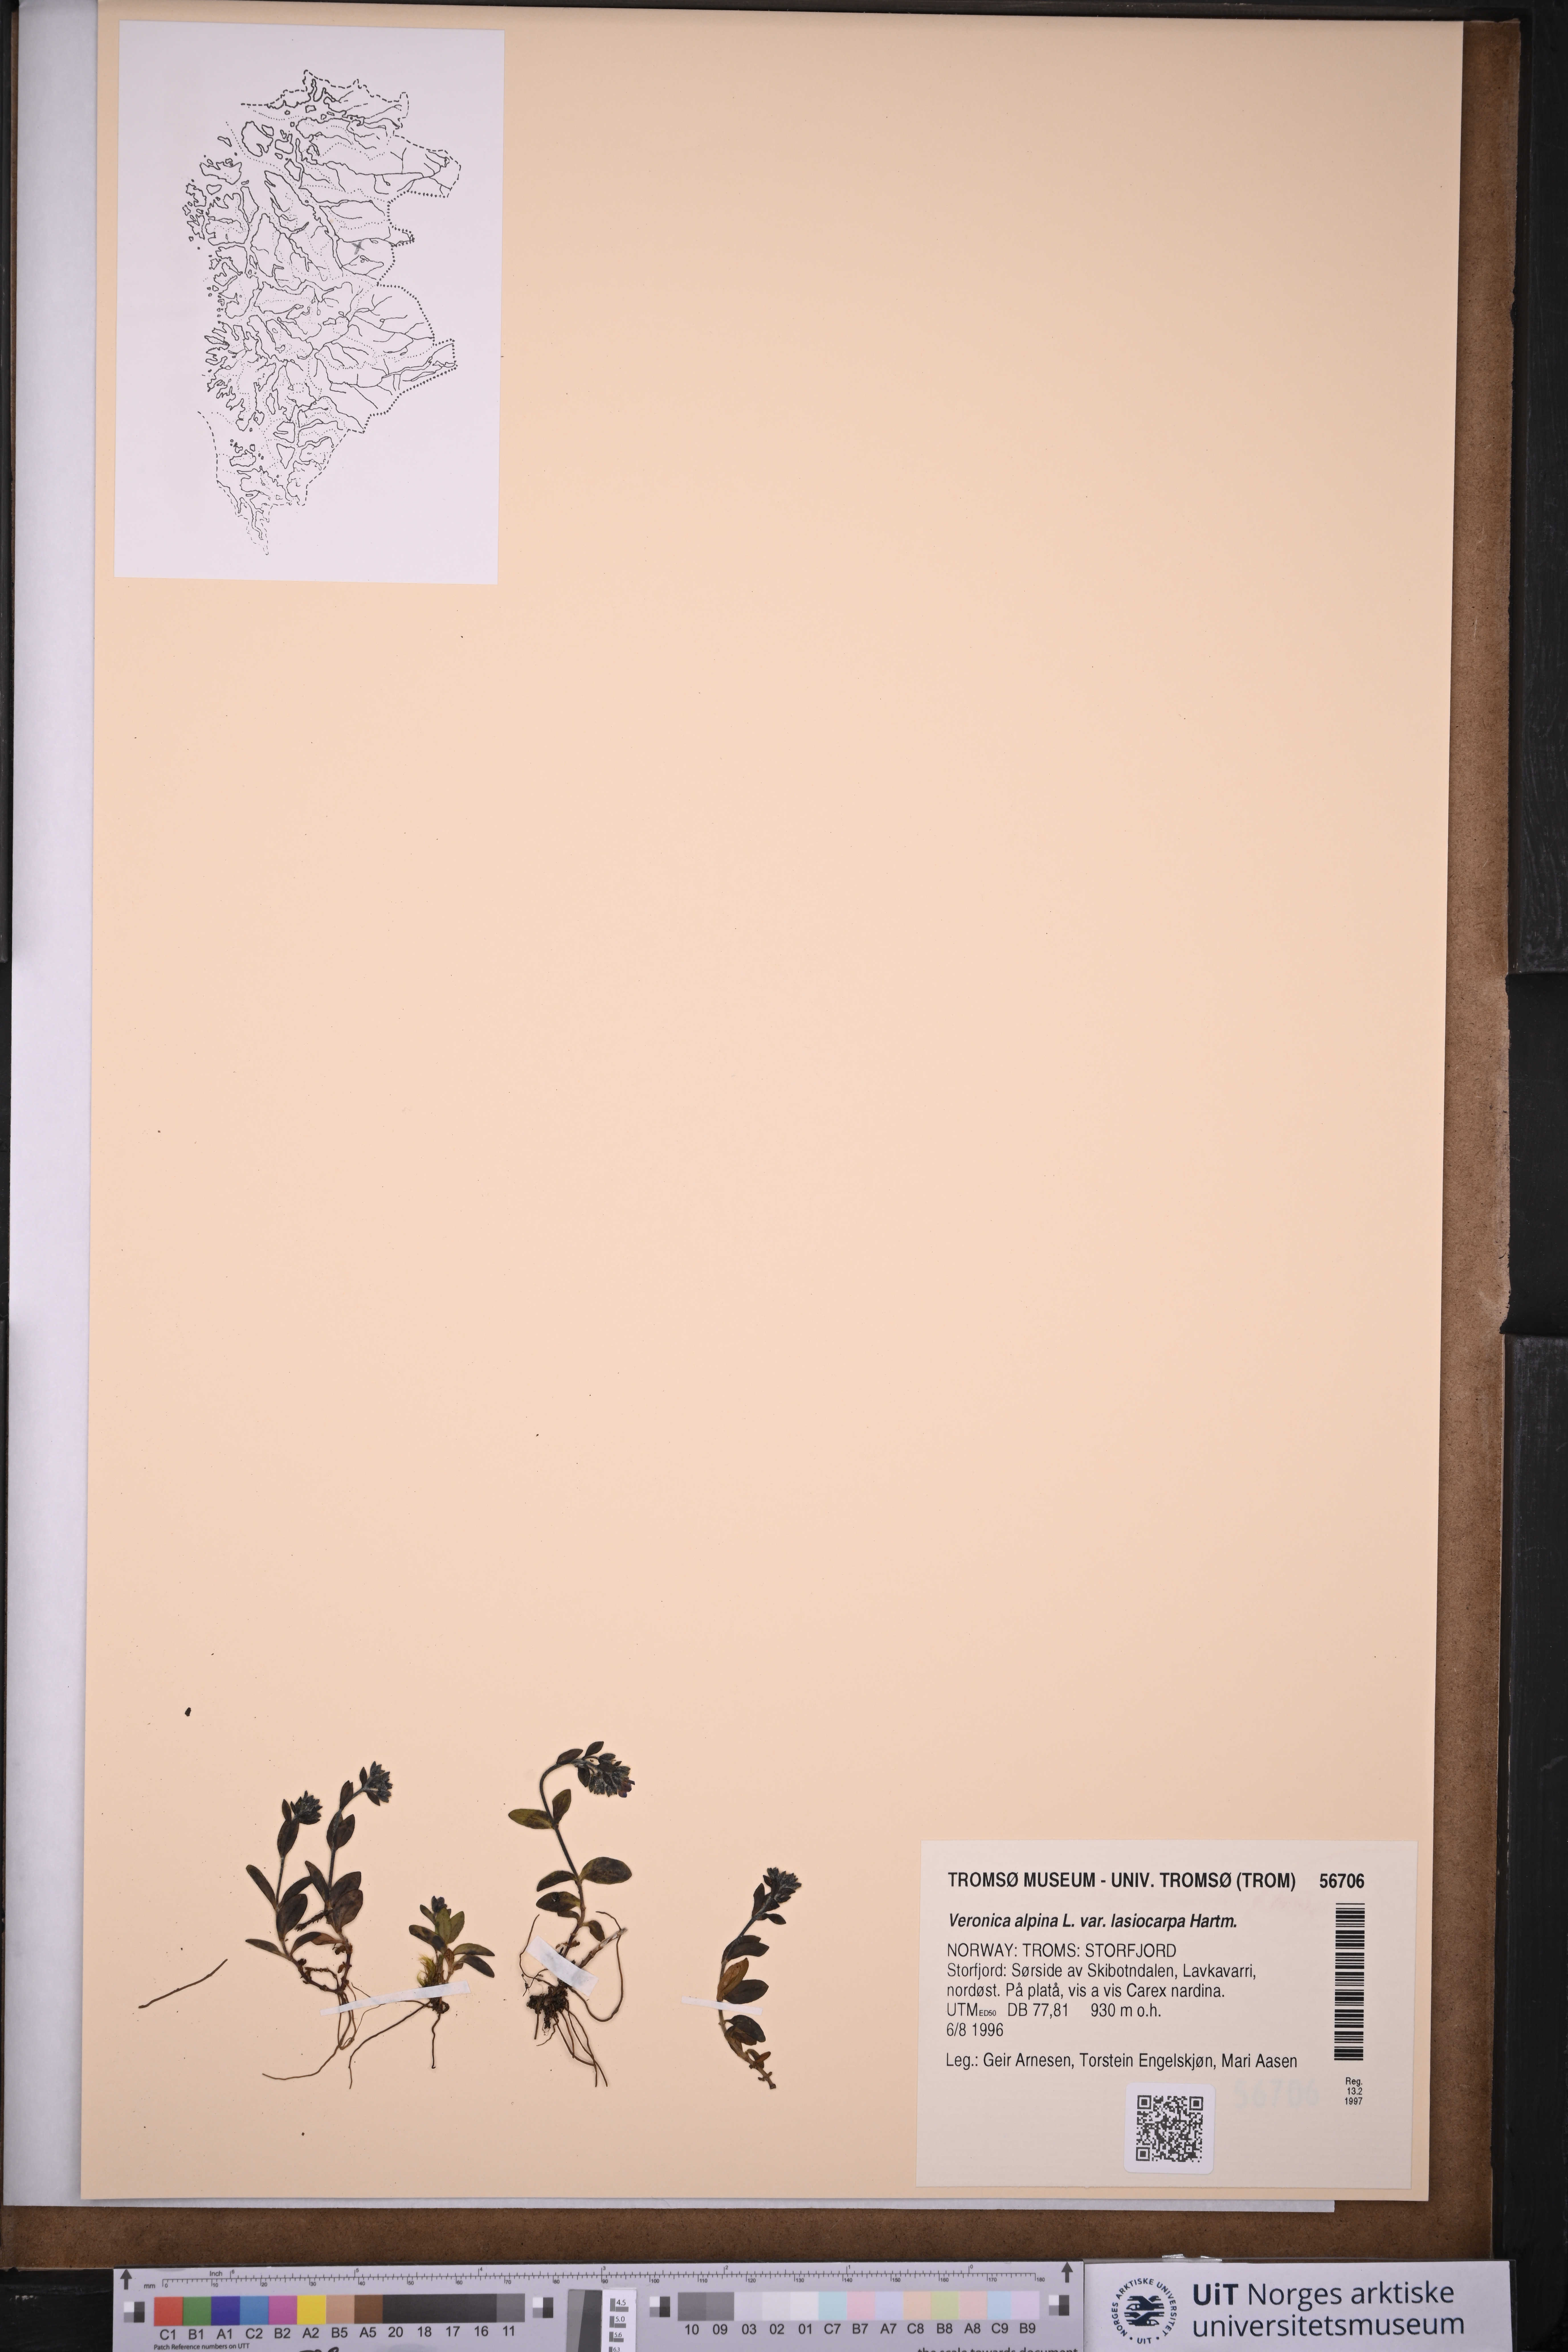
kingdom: Plantae
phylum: Tracheophyta
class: Magnoliopsida
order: Lamiales
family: Plantaginaceae
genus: Veronica
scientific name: Veronica alpina
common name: Alpine speedwell
